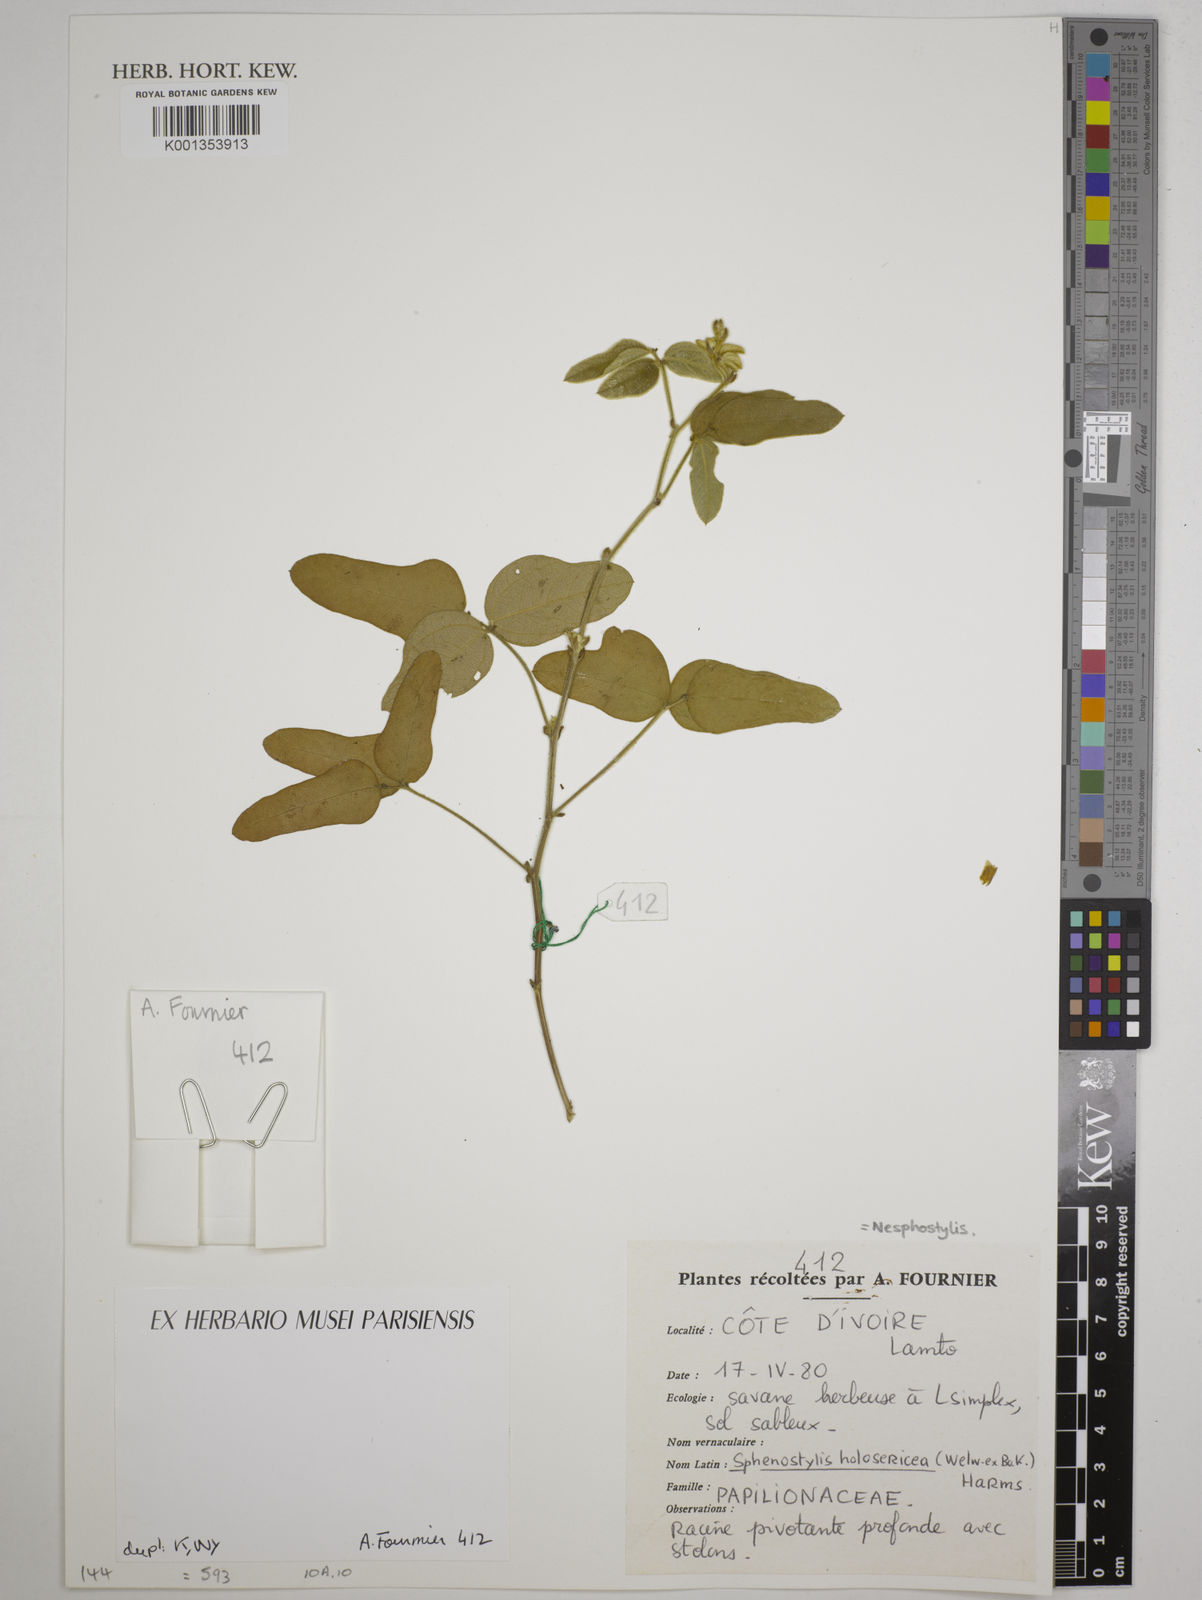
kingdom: Plantae
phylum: Tracheophyta
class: Magnoliopsida
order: Fabales
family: Fabaceae
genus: Nesphostylis
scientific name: Nesphostylis holosericea
